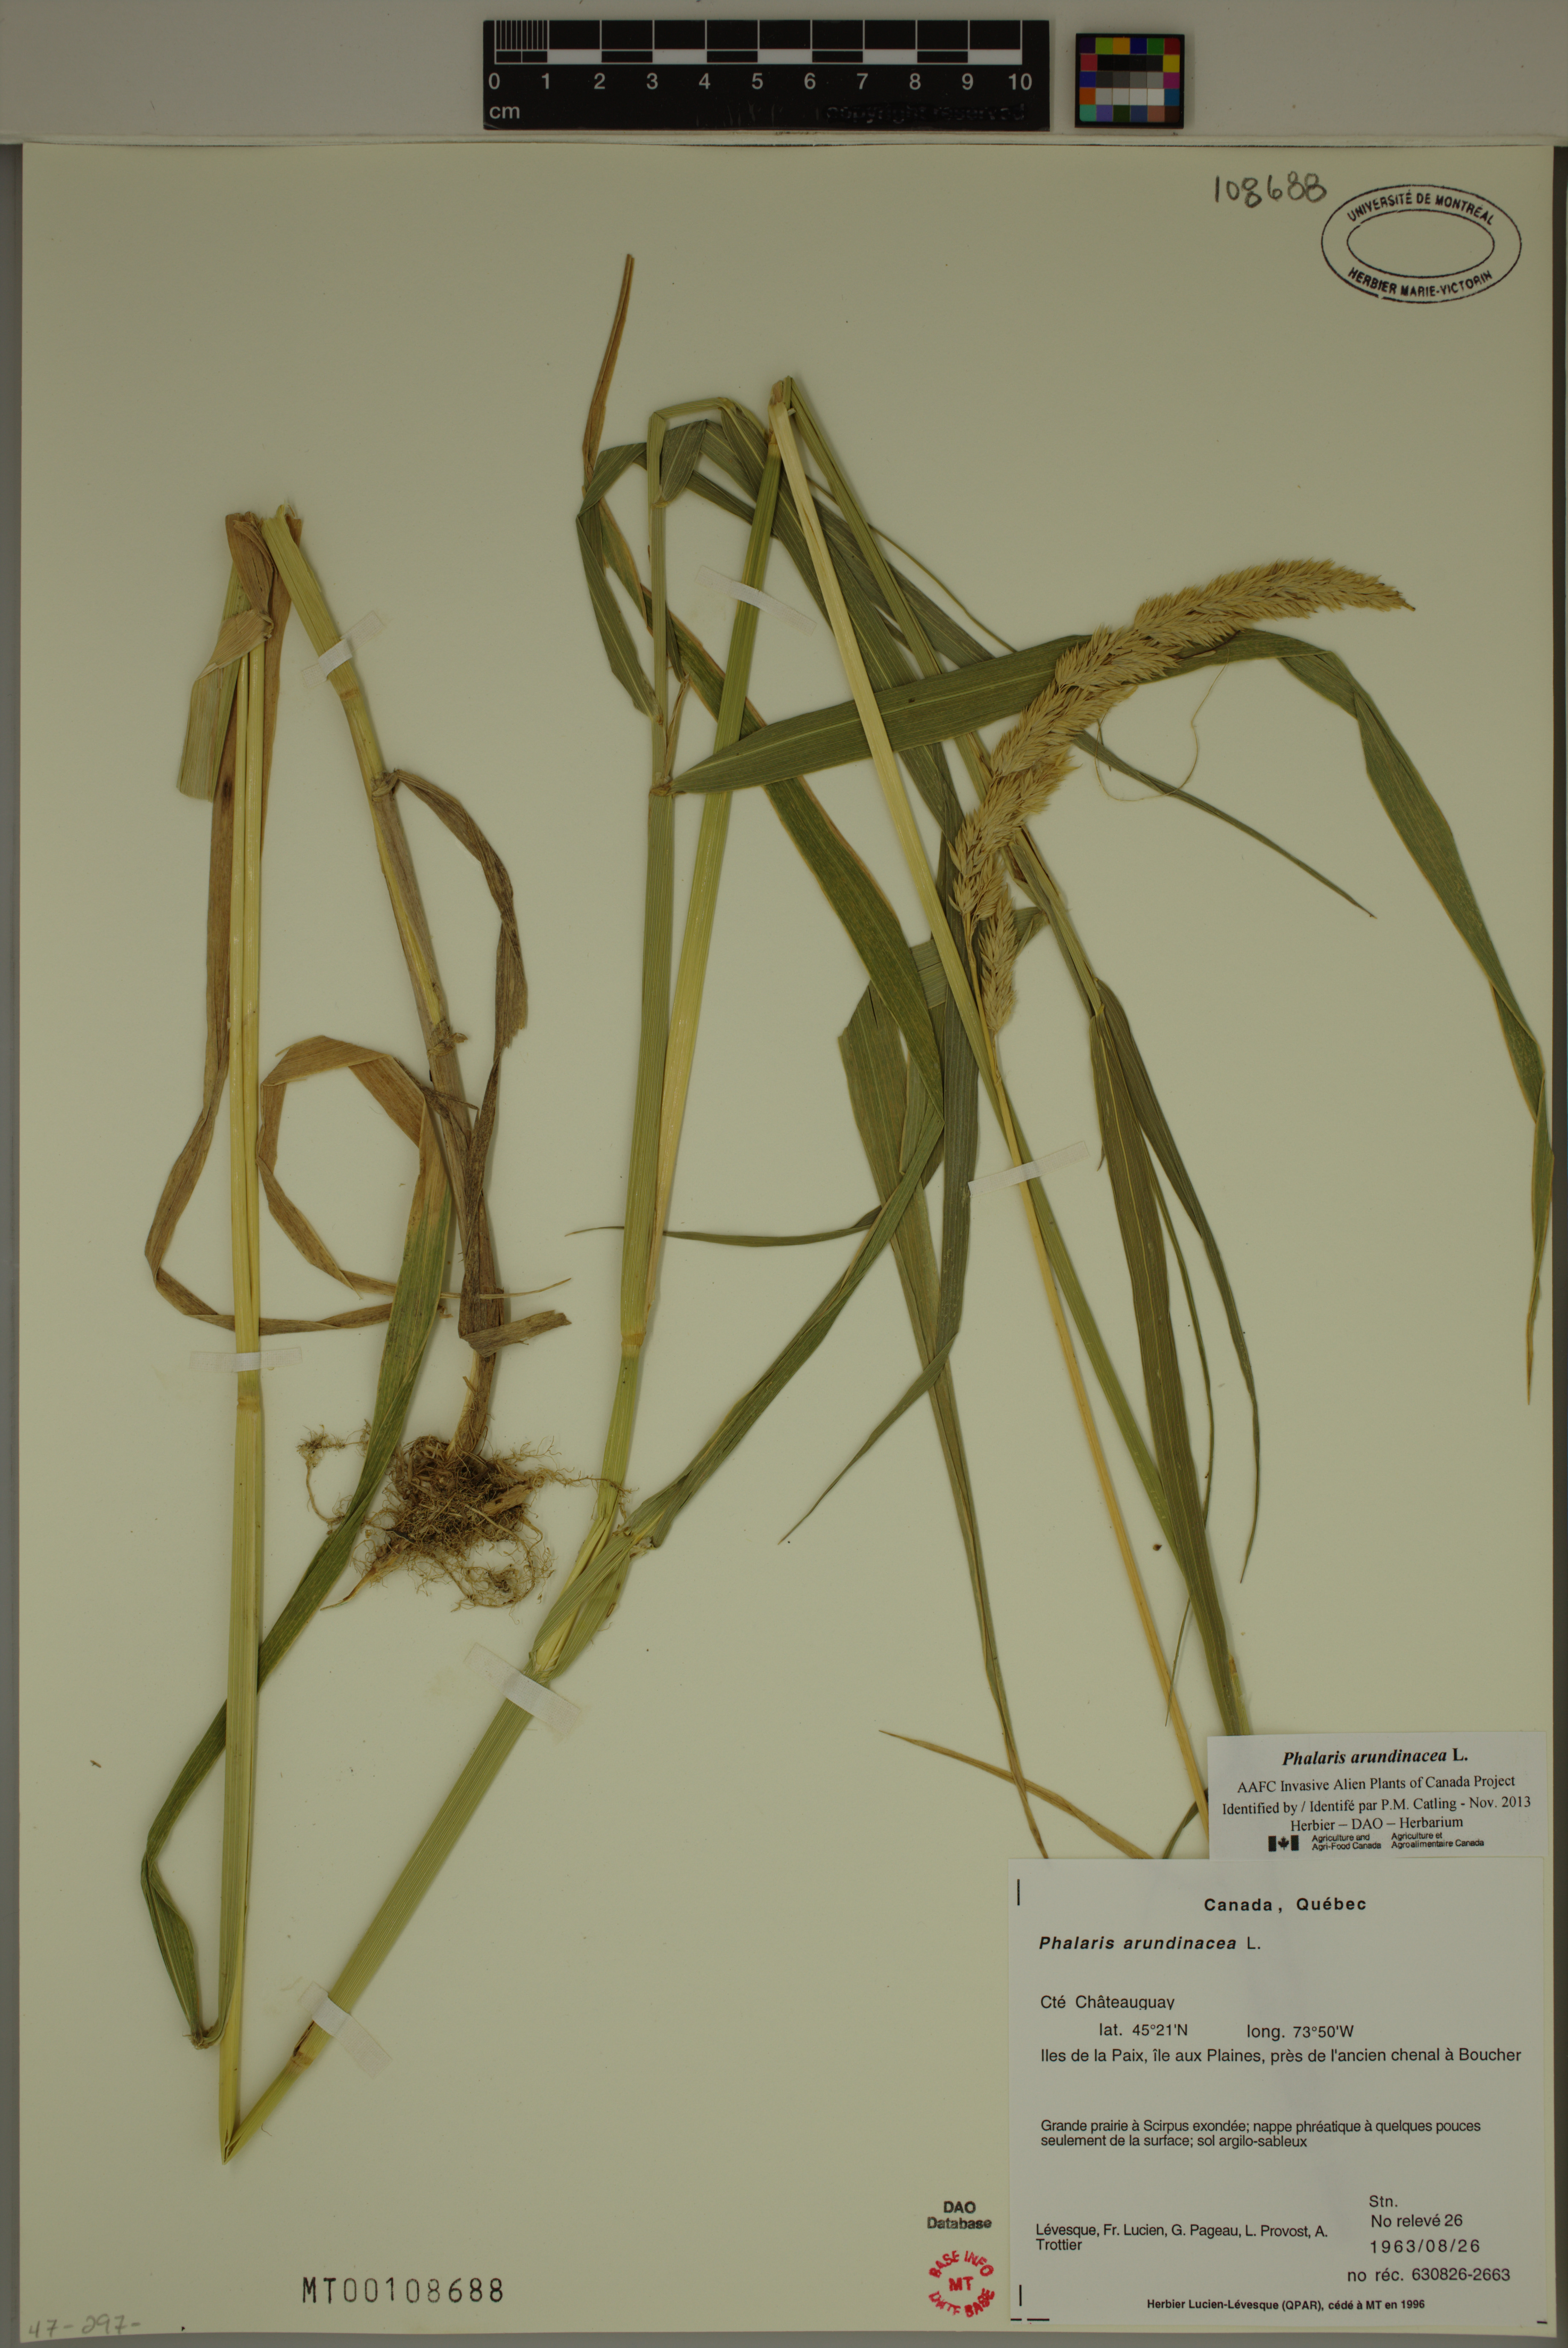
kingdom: Plantae
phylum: Tracheophyta
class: Liliopsida
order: Poales
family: Poaceae
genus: Phalaris
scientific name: Phalaris arundinacea
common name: Reed canary-grass
